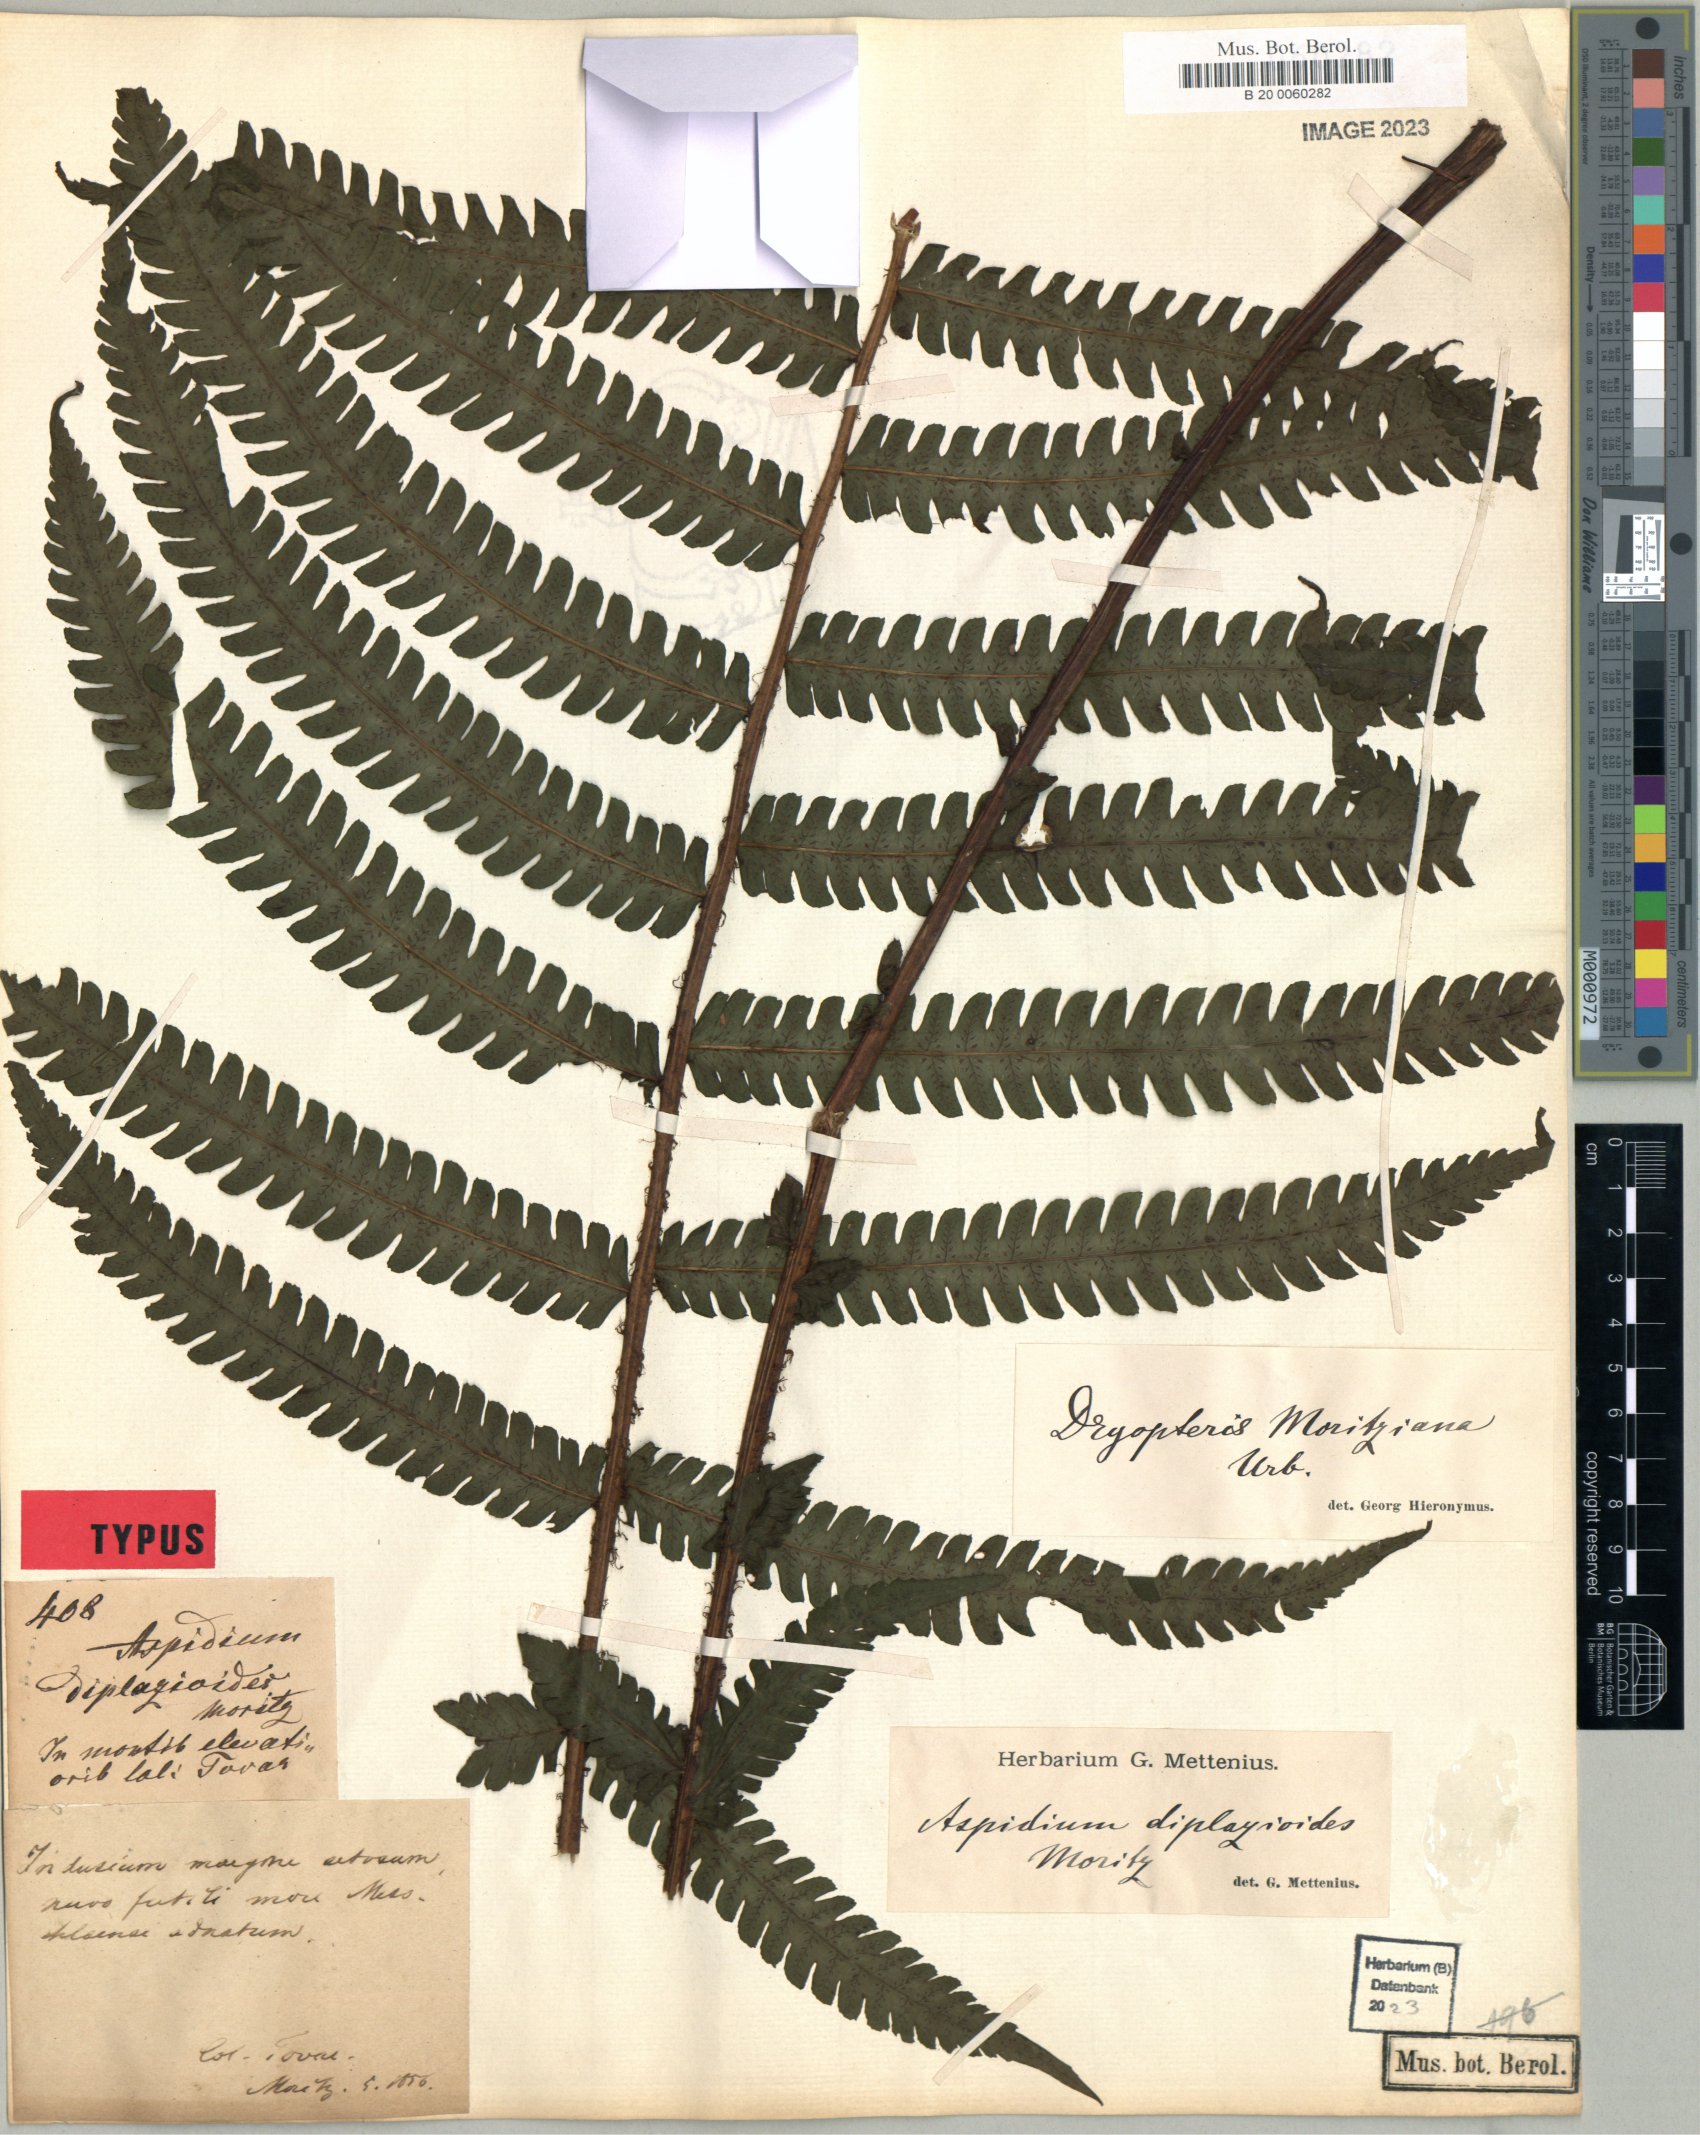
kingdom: Plantae
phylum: Tracheophyta
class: Polypodiopsida
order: Polypodiales
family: Thelypteridaceae
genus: Amauropelta
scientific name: Amauropelta moritziana
